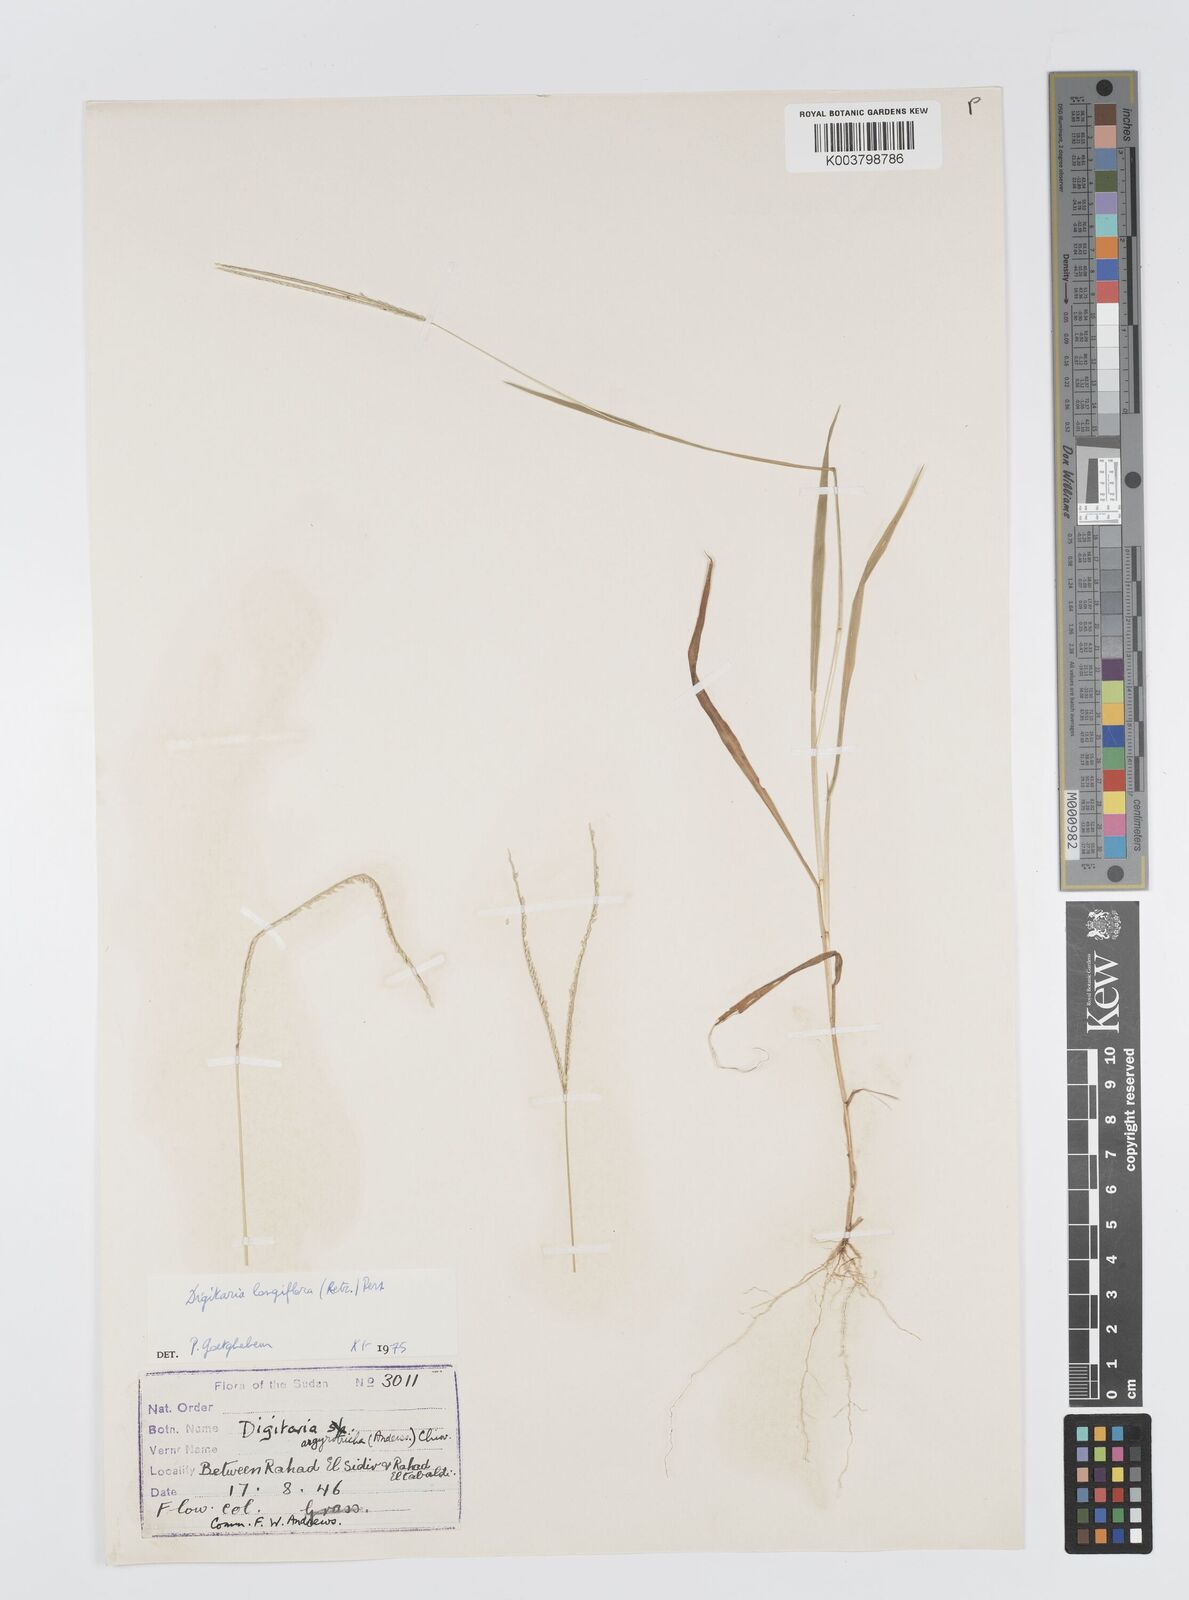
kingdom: Plantae
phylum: Tracheophyta
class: Liliopsida
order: Poales
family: Poaceae
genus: Digitaria
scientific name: Digitaria longiflora
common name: Wire crabgrass
